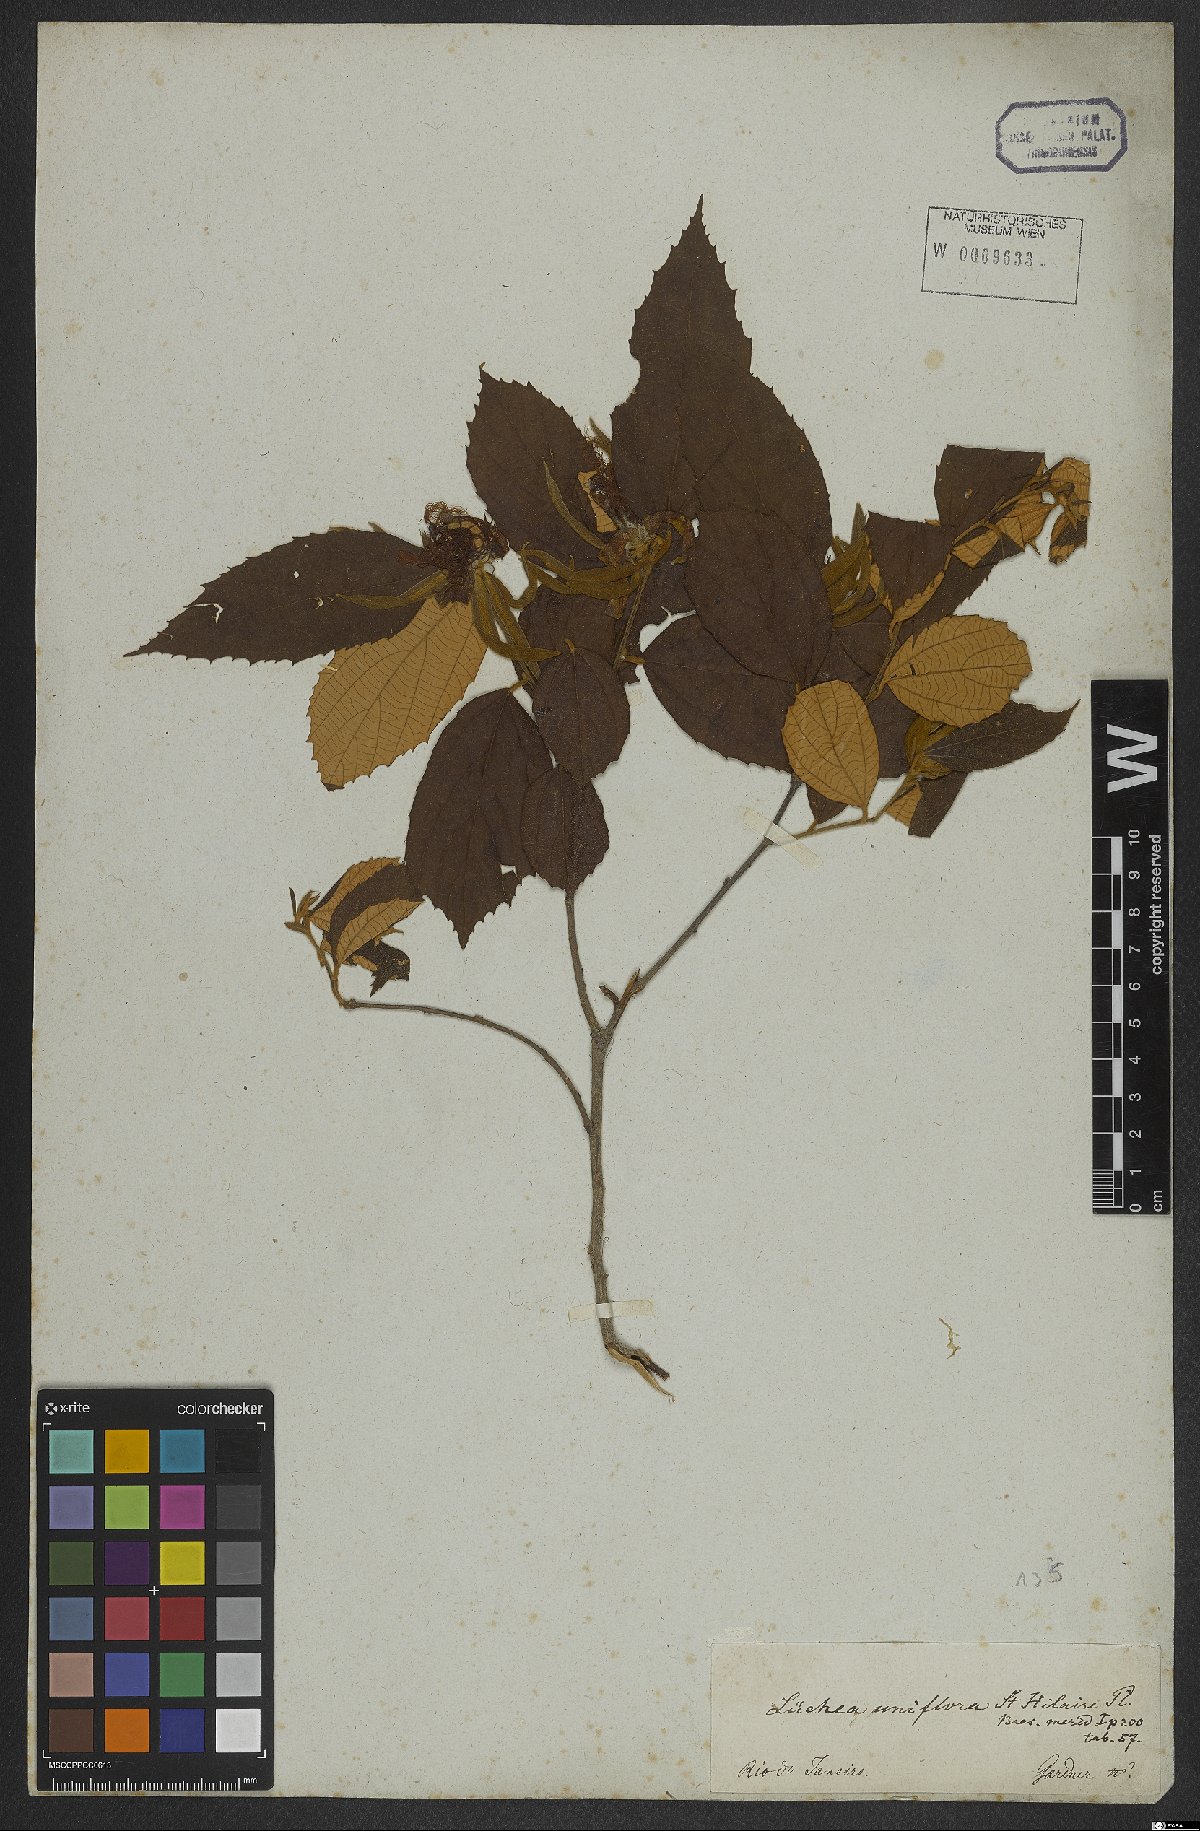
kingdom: Plantae
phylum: Tracheophyta
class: Magnoliopsida
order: Malvales
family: Malvaceae
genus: Luehea
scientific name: Luehea candicans
